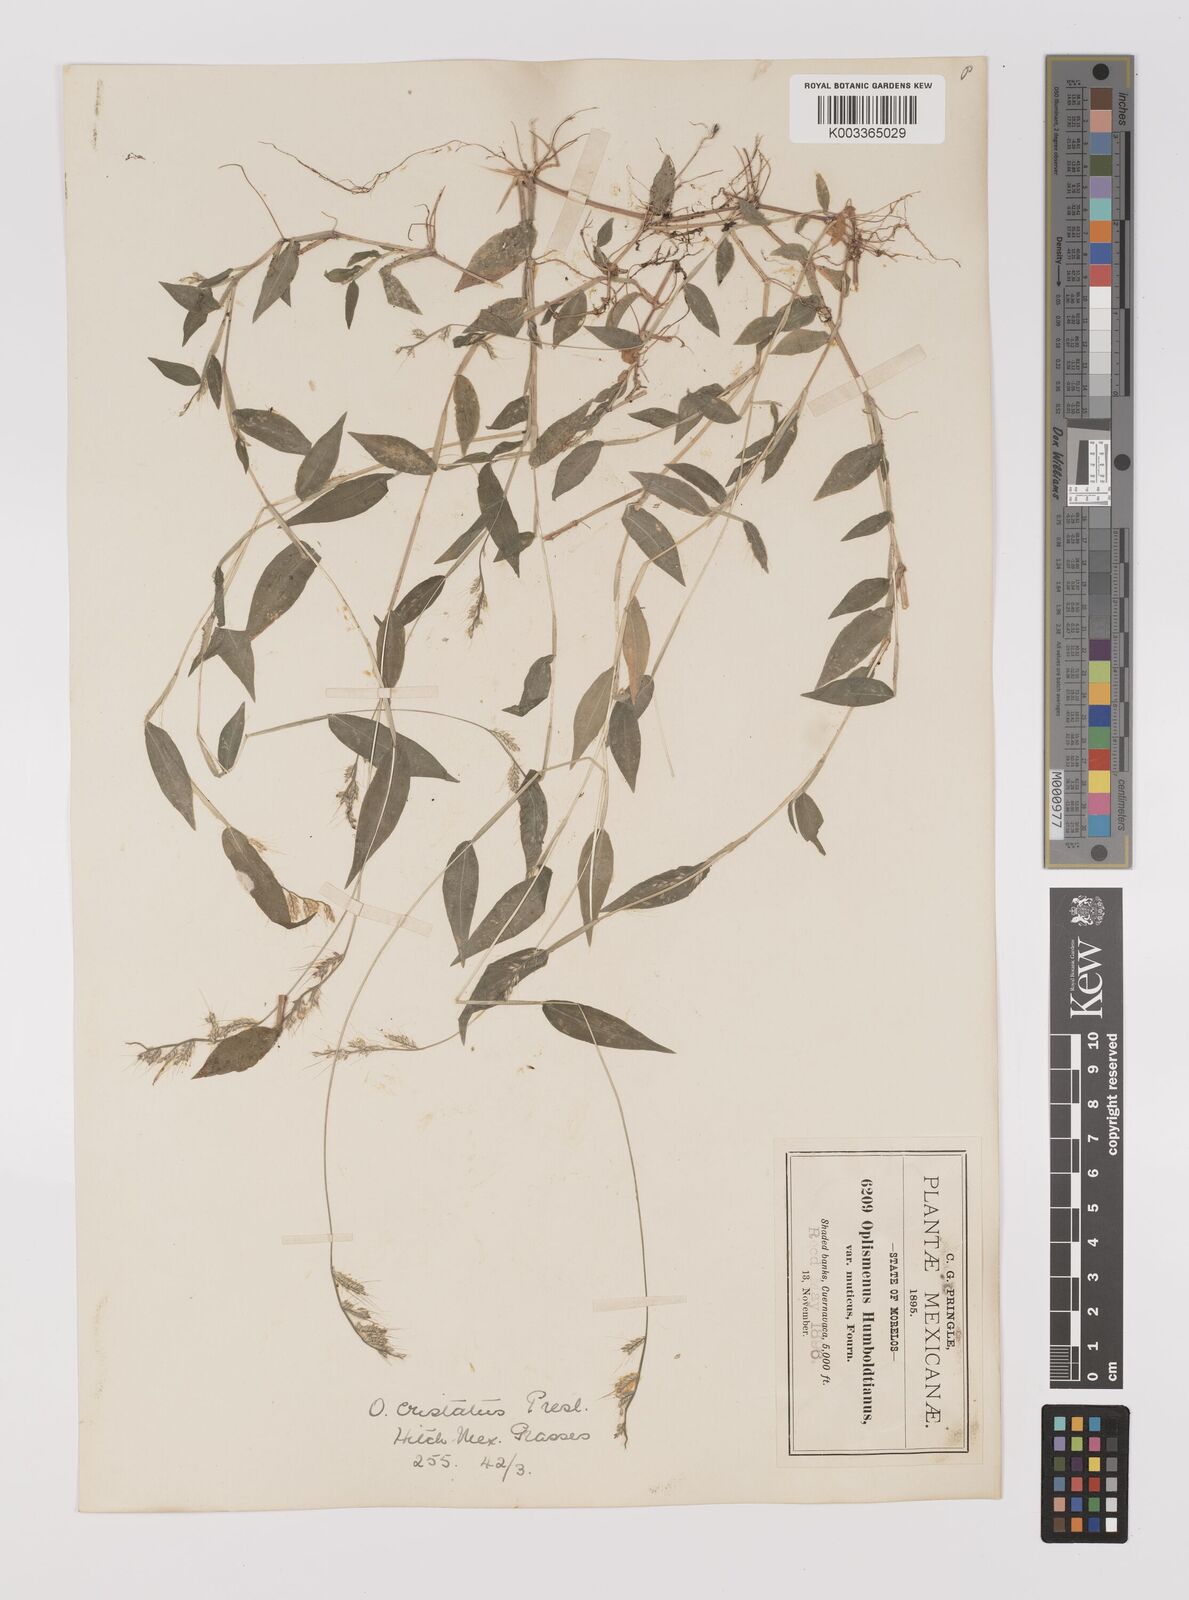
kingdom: Plantae
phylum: Tracheophyta
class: Liliopsida
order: Poales
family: Poaceae
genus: Oplismenus
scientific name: Oplismenus burmanni
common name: Burmann's basketgrass
